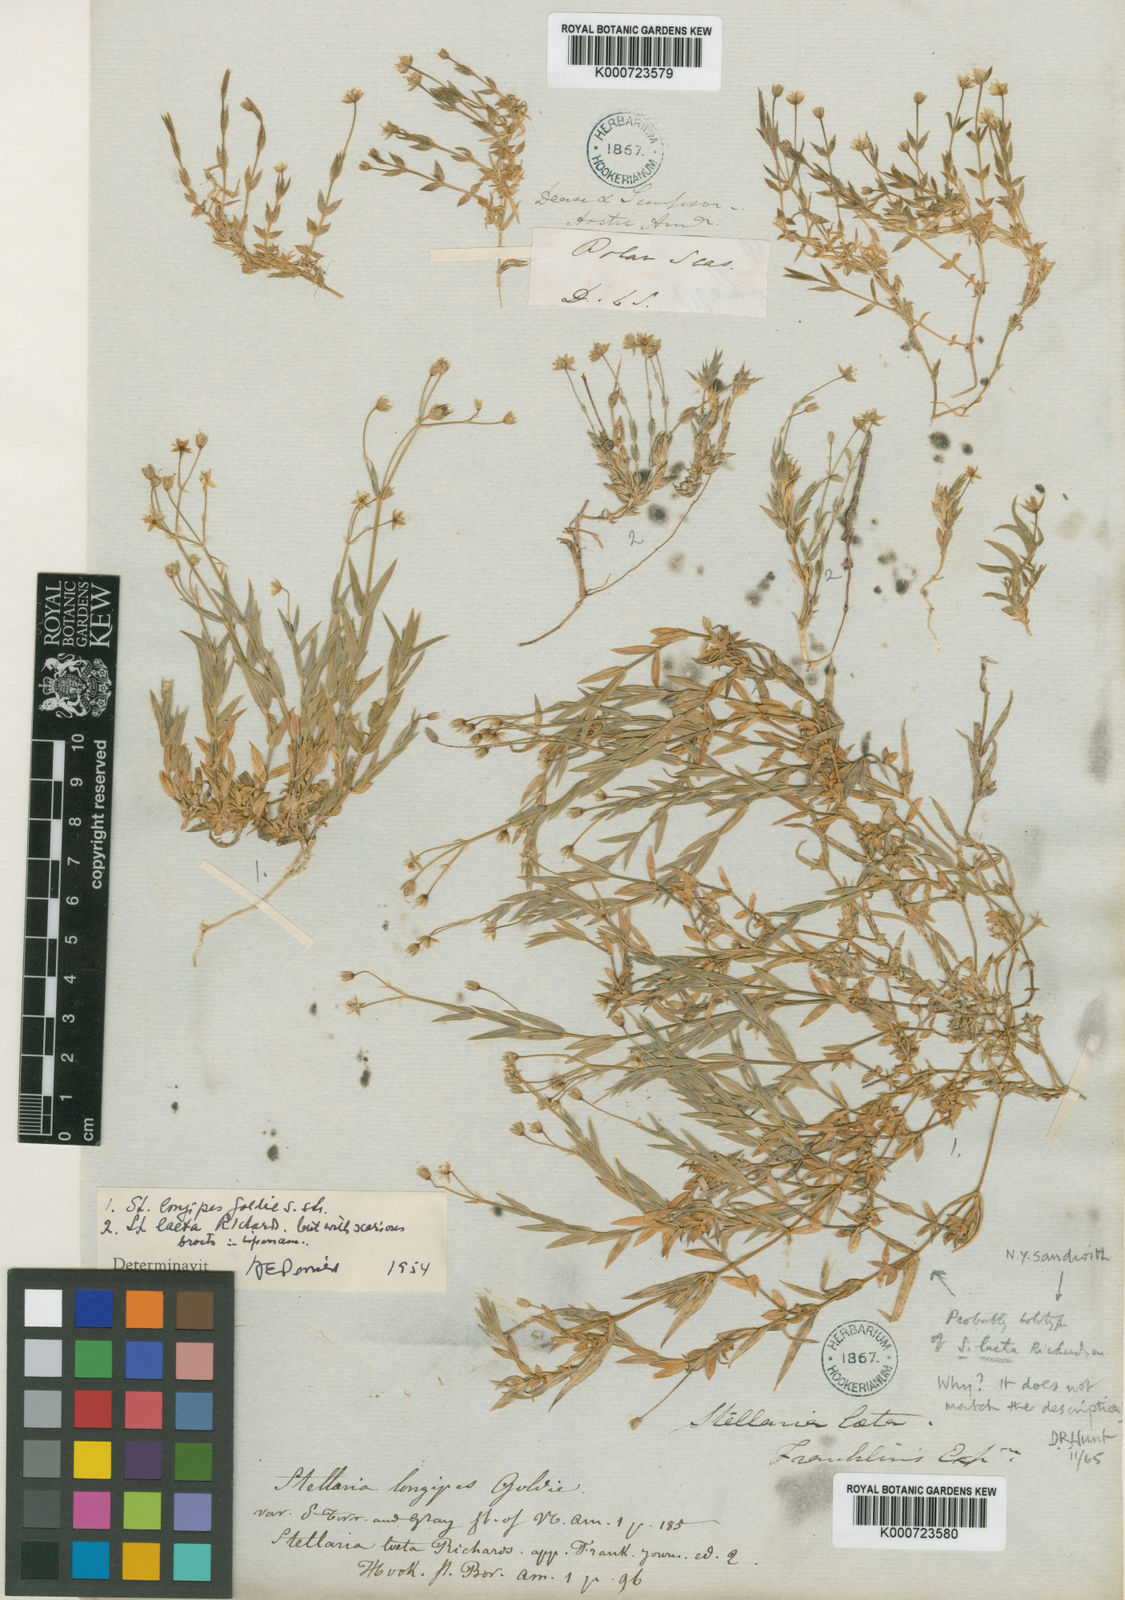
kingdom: Plantae
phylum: Tracheophyta
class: Magnoliopsida
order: Caryophyllales
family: Caryophyllaceae
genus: Stellaria
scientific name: Stellaria laeta
